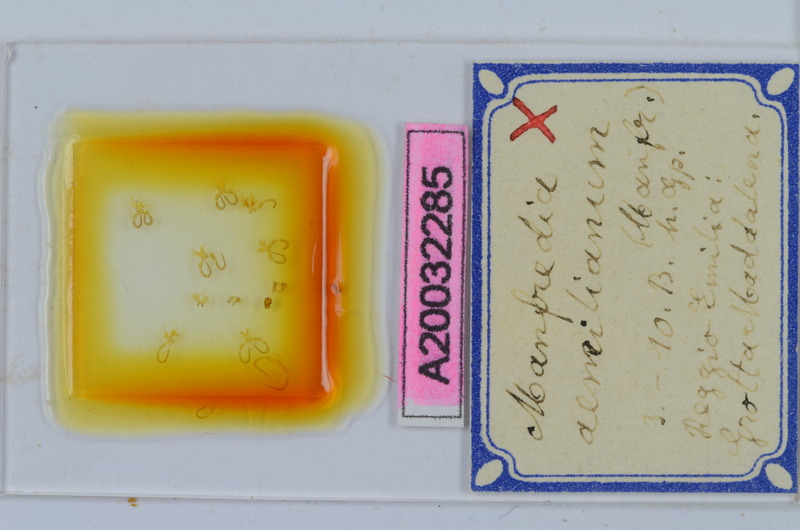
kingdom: Animalia
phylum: Arthropoda
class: Diplopoda
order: Chordeumatida
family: Craspedosomatidae
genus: Manfredia
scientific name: Manfredia aemiliana
